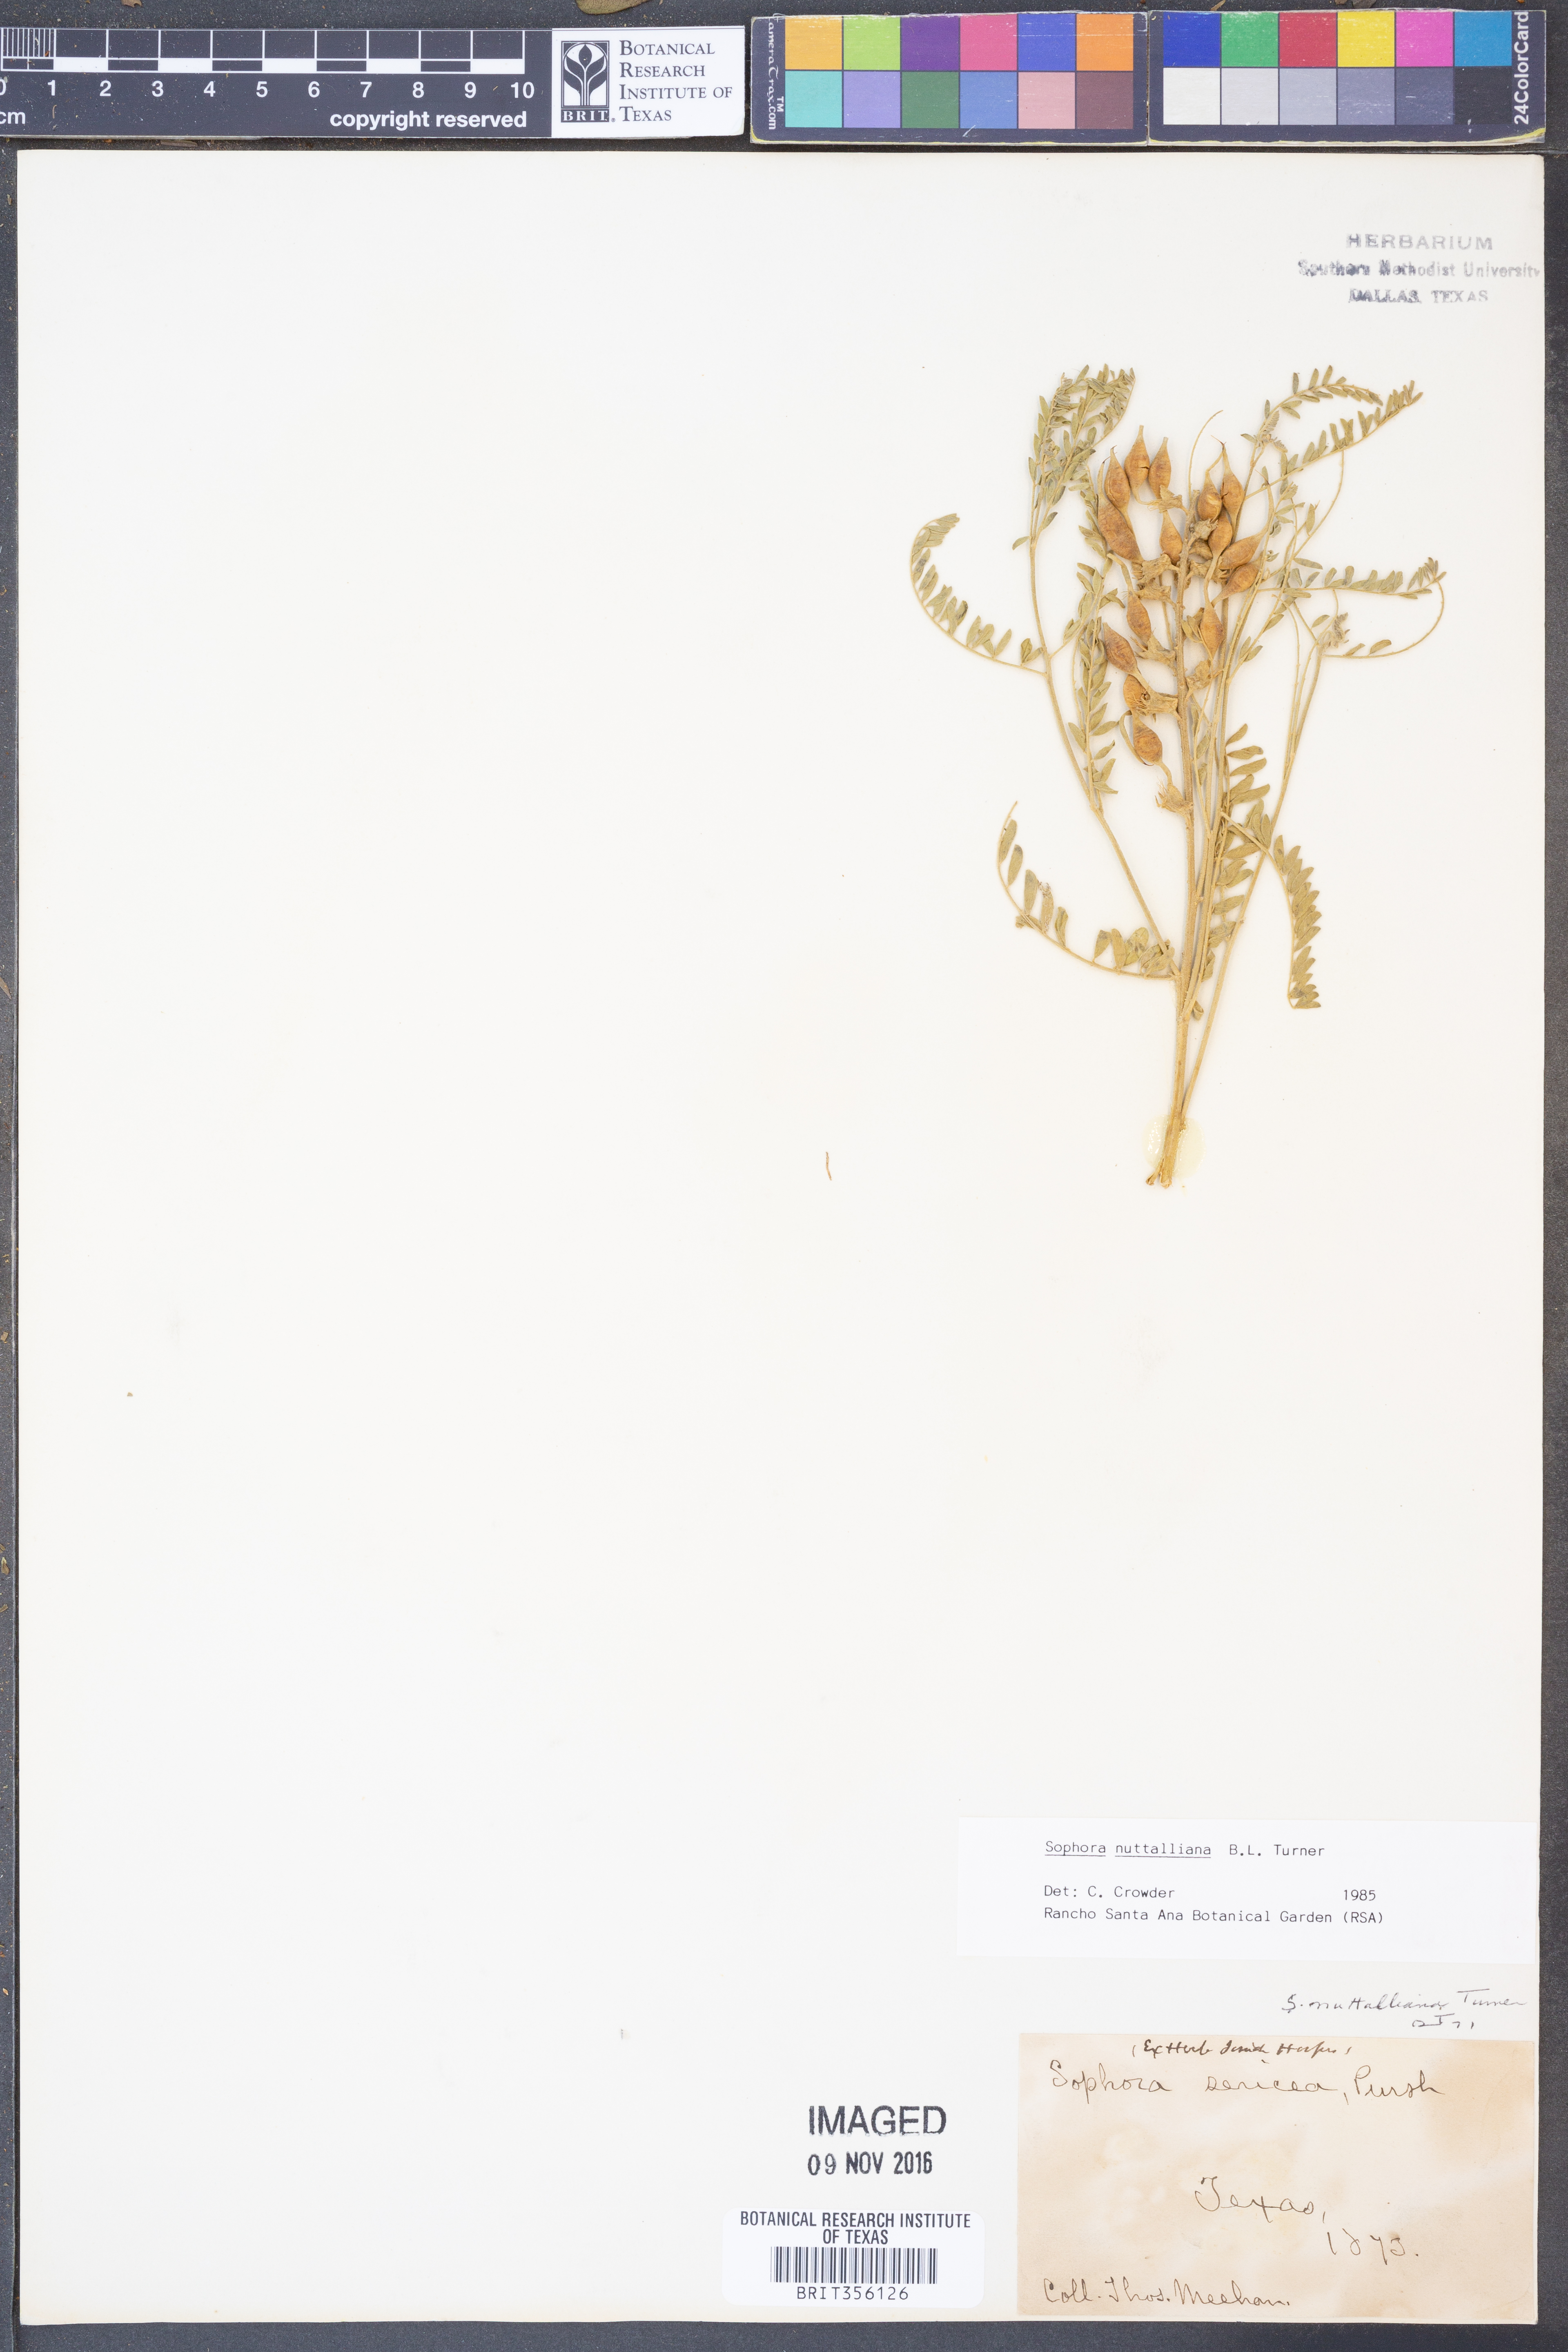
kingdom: Plantae
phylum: Tracheophyta
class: Magnoliopsida
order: Fabales
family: Fabaceae
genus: Sophora
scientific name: Sophora nuttalliana
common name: Silky sophora
